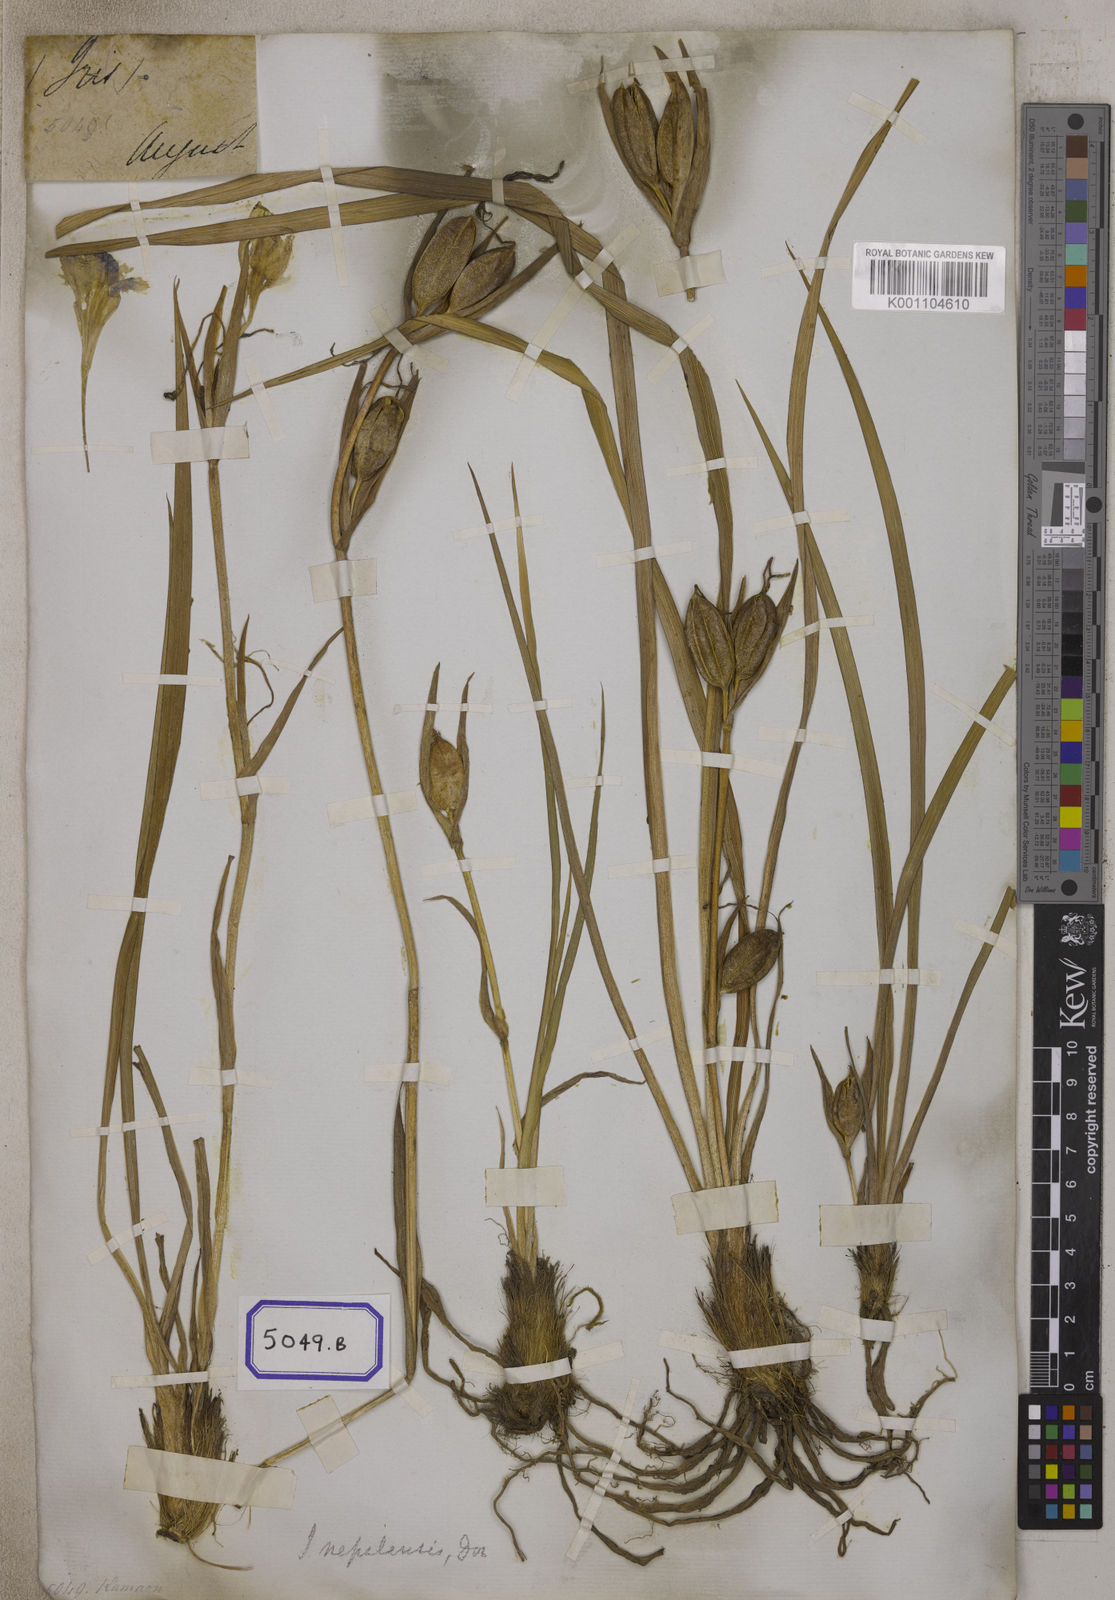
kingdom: Plantae
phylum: Tracheophyta
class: Liliopsida
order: Asparagales
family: Iridaceae
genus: Iris
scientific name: Iris decora
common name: Nepal iris
